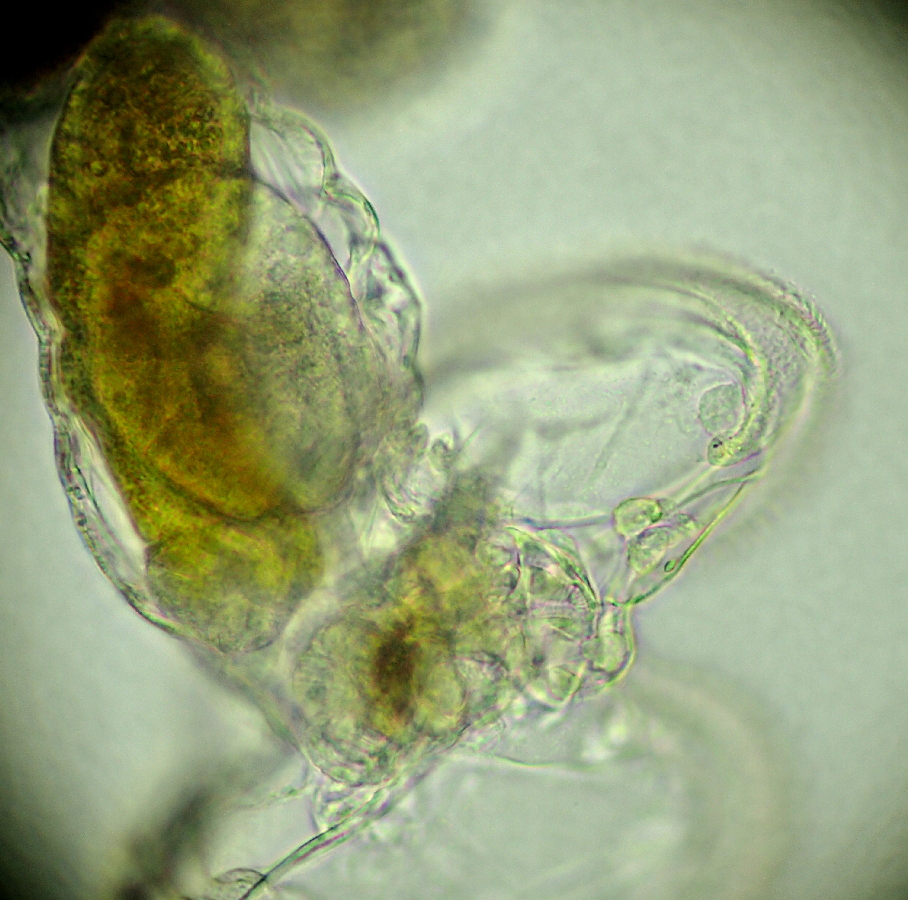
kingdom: Animalia
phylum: Rotifera
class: Eurotatoria
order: Flosculariaceae
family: Flosculariidae
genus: Lacinularia
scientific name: Lacinularia ismailoviensis
